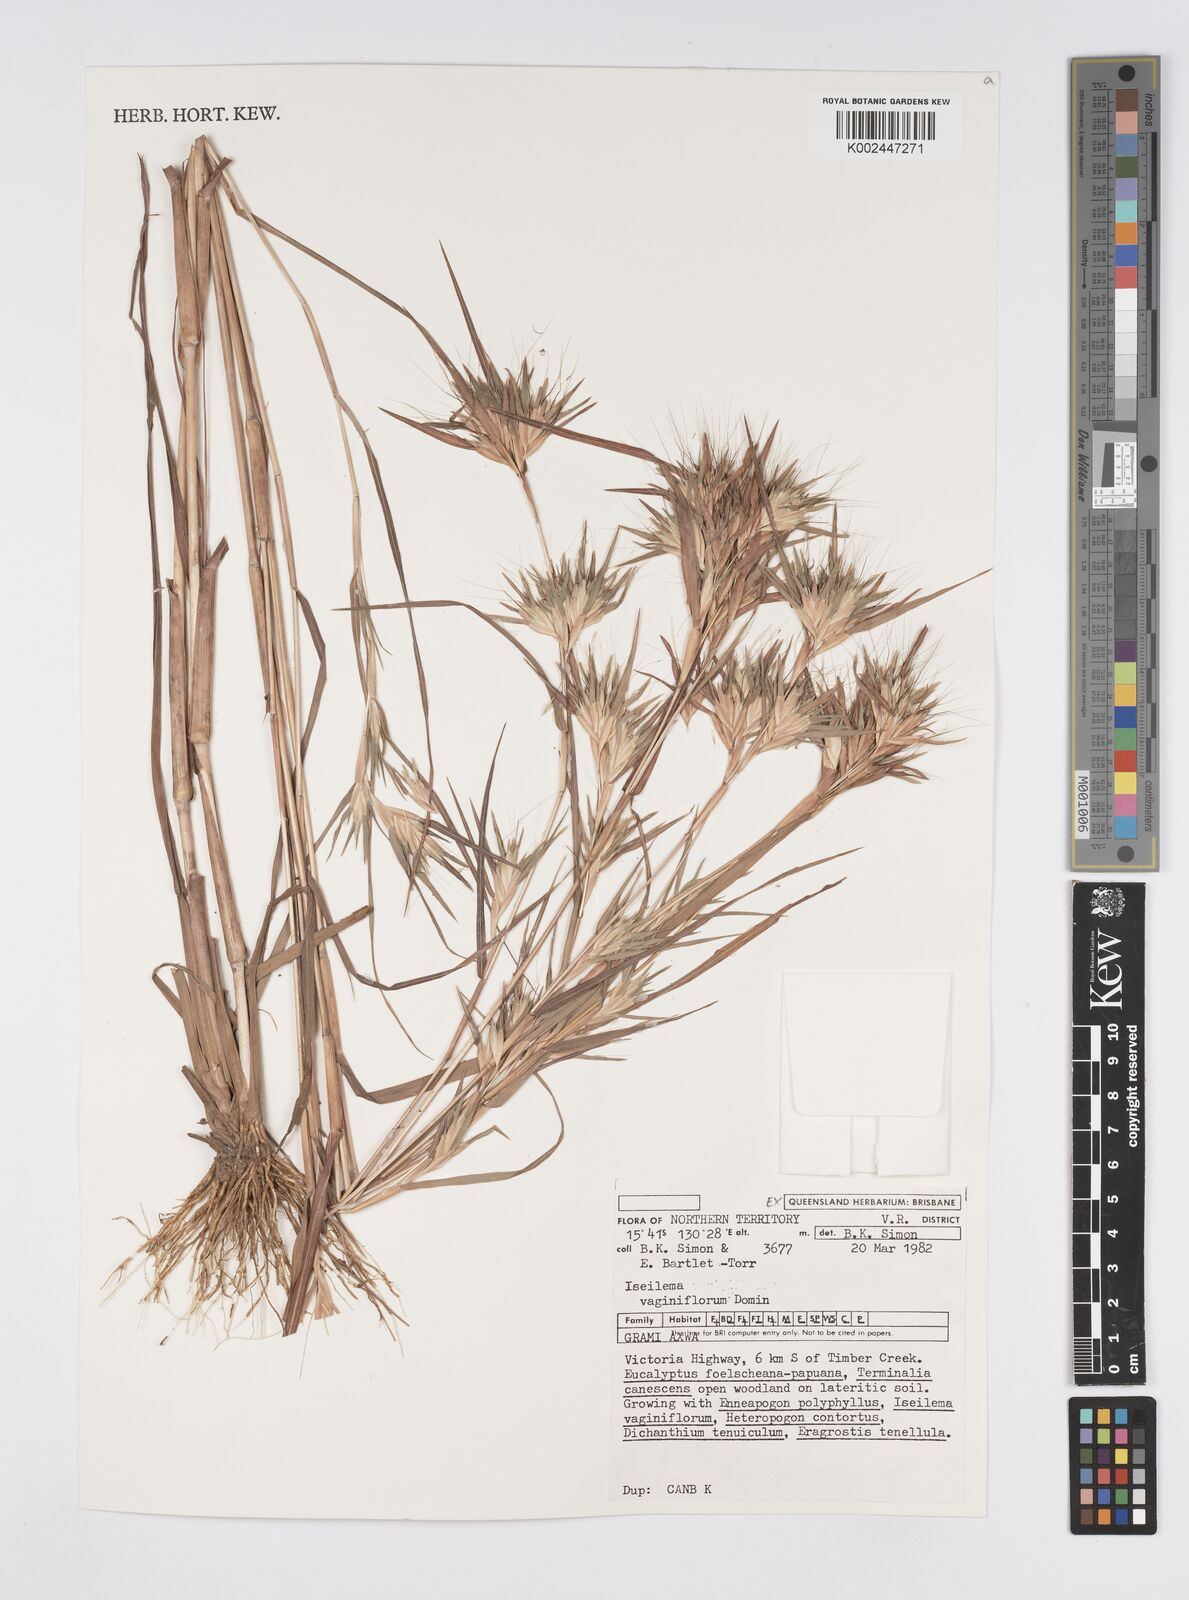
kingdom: Plantae
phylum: Tracheophyta
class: Liliopsida
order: Poales
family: Poaceae
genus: Iseilema
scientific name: Iseilema vaginiflorum
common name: Red flinders grass
